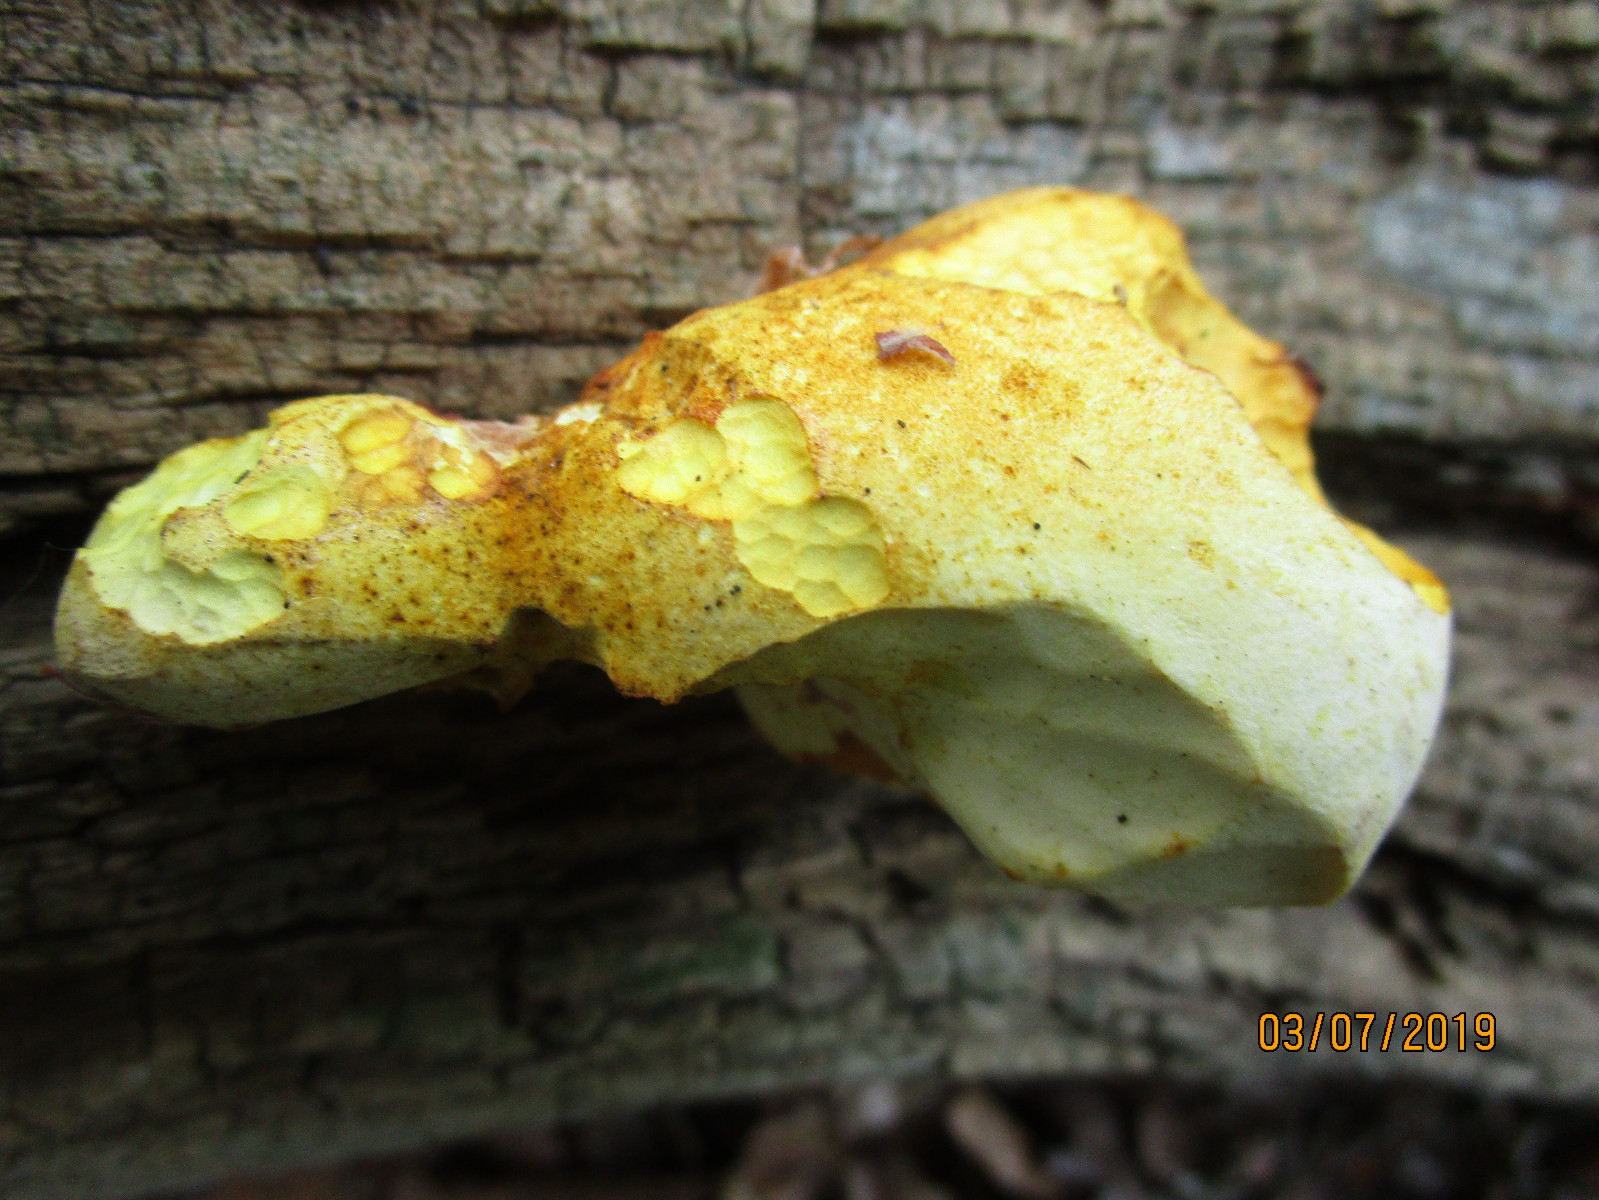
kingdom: Fungi
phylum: Basidiomycota
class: Agaricomycetes
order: Polyporales
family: Fomitopsidaceae
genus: Buglossoporus
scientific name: Buglossoporus quercinus
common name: egetunge
